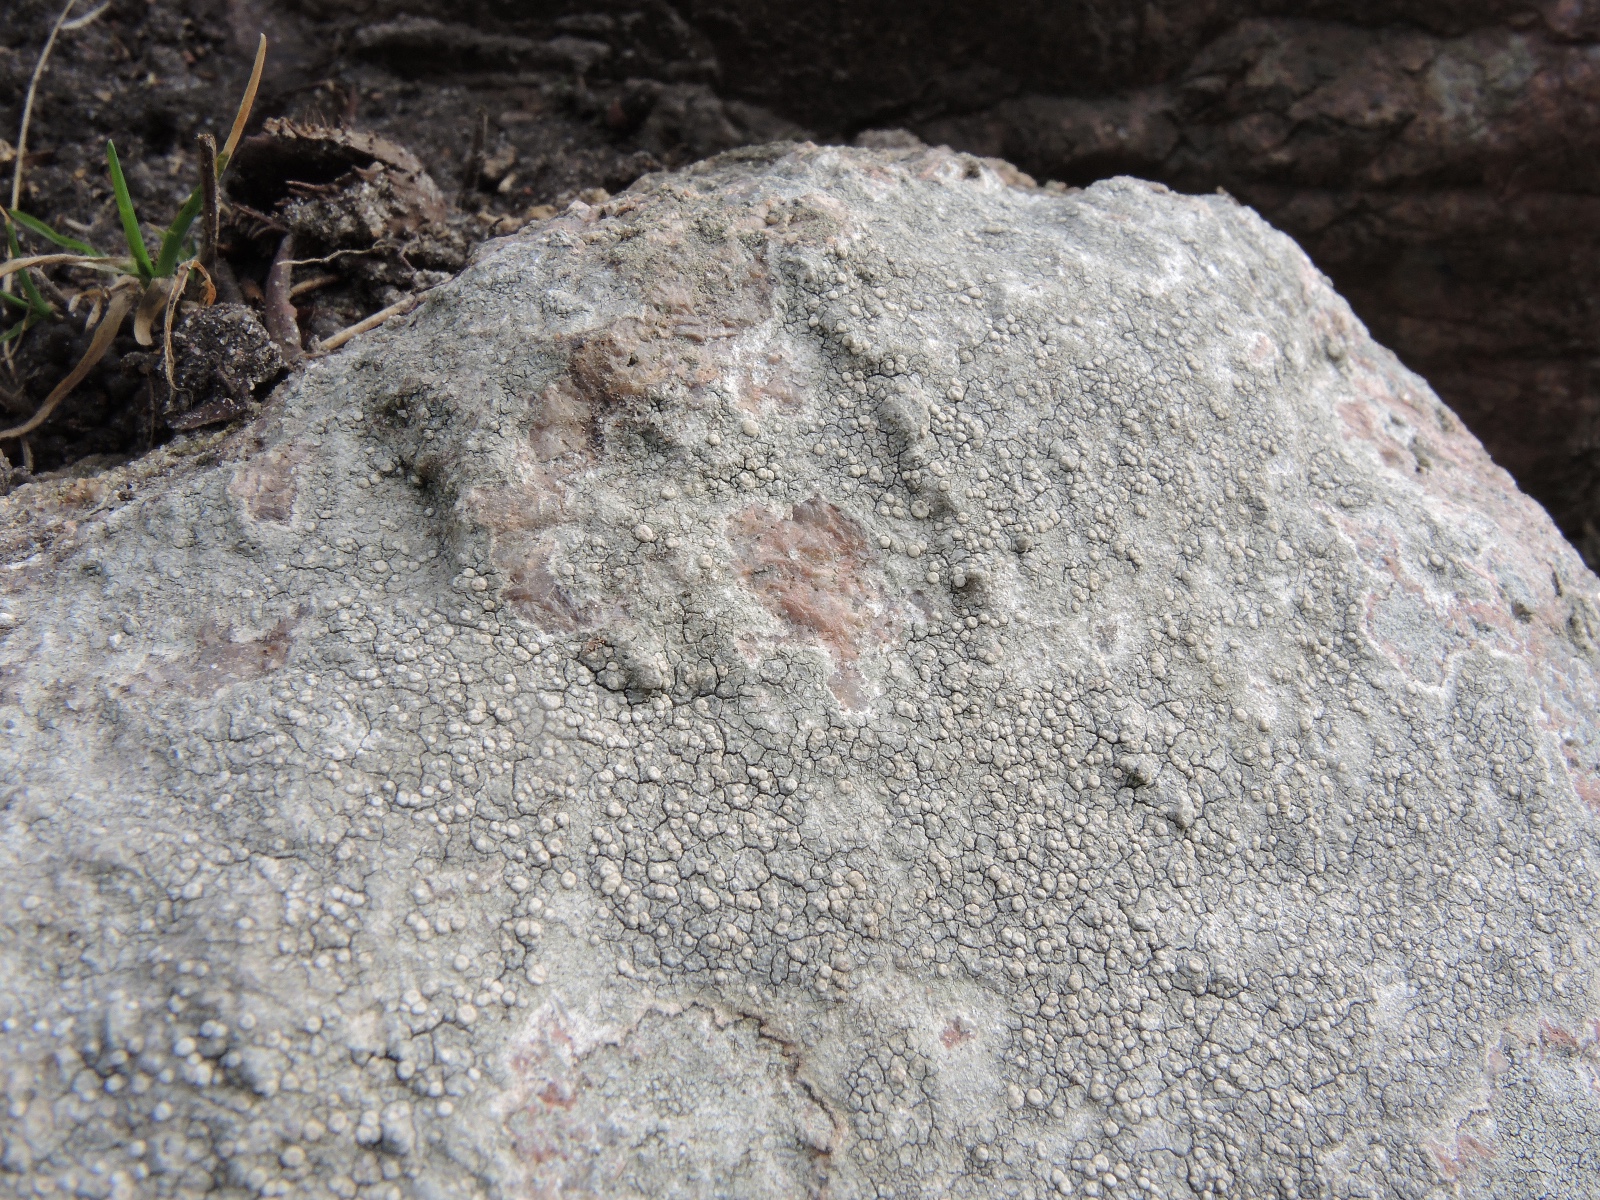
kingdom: Fungi
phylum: Ascomycota
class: Lecanoromycetes
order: Pertusariales
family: Ochrolechiaceae
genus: Ochrolechia
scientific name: Ochrolechia parella
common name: almindelig blegskivelav
